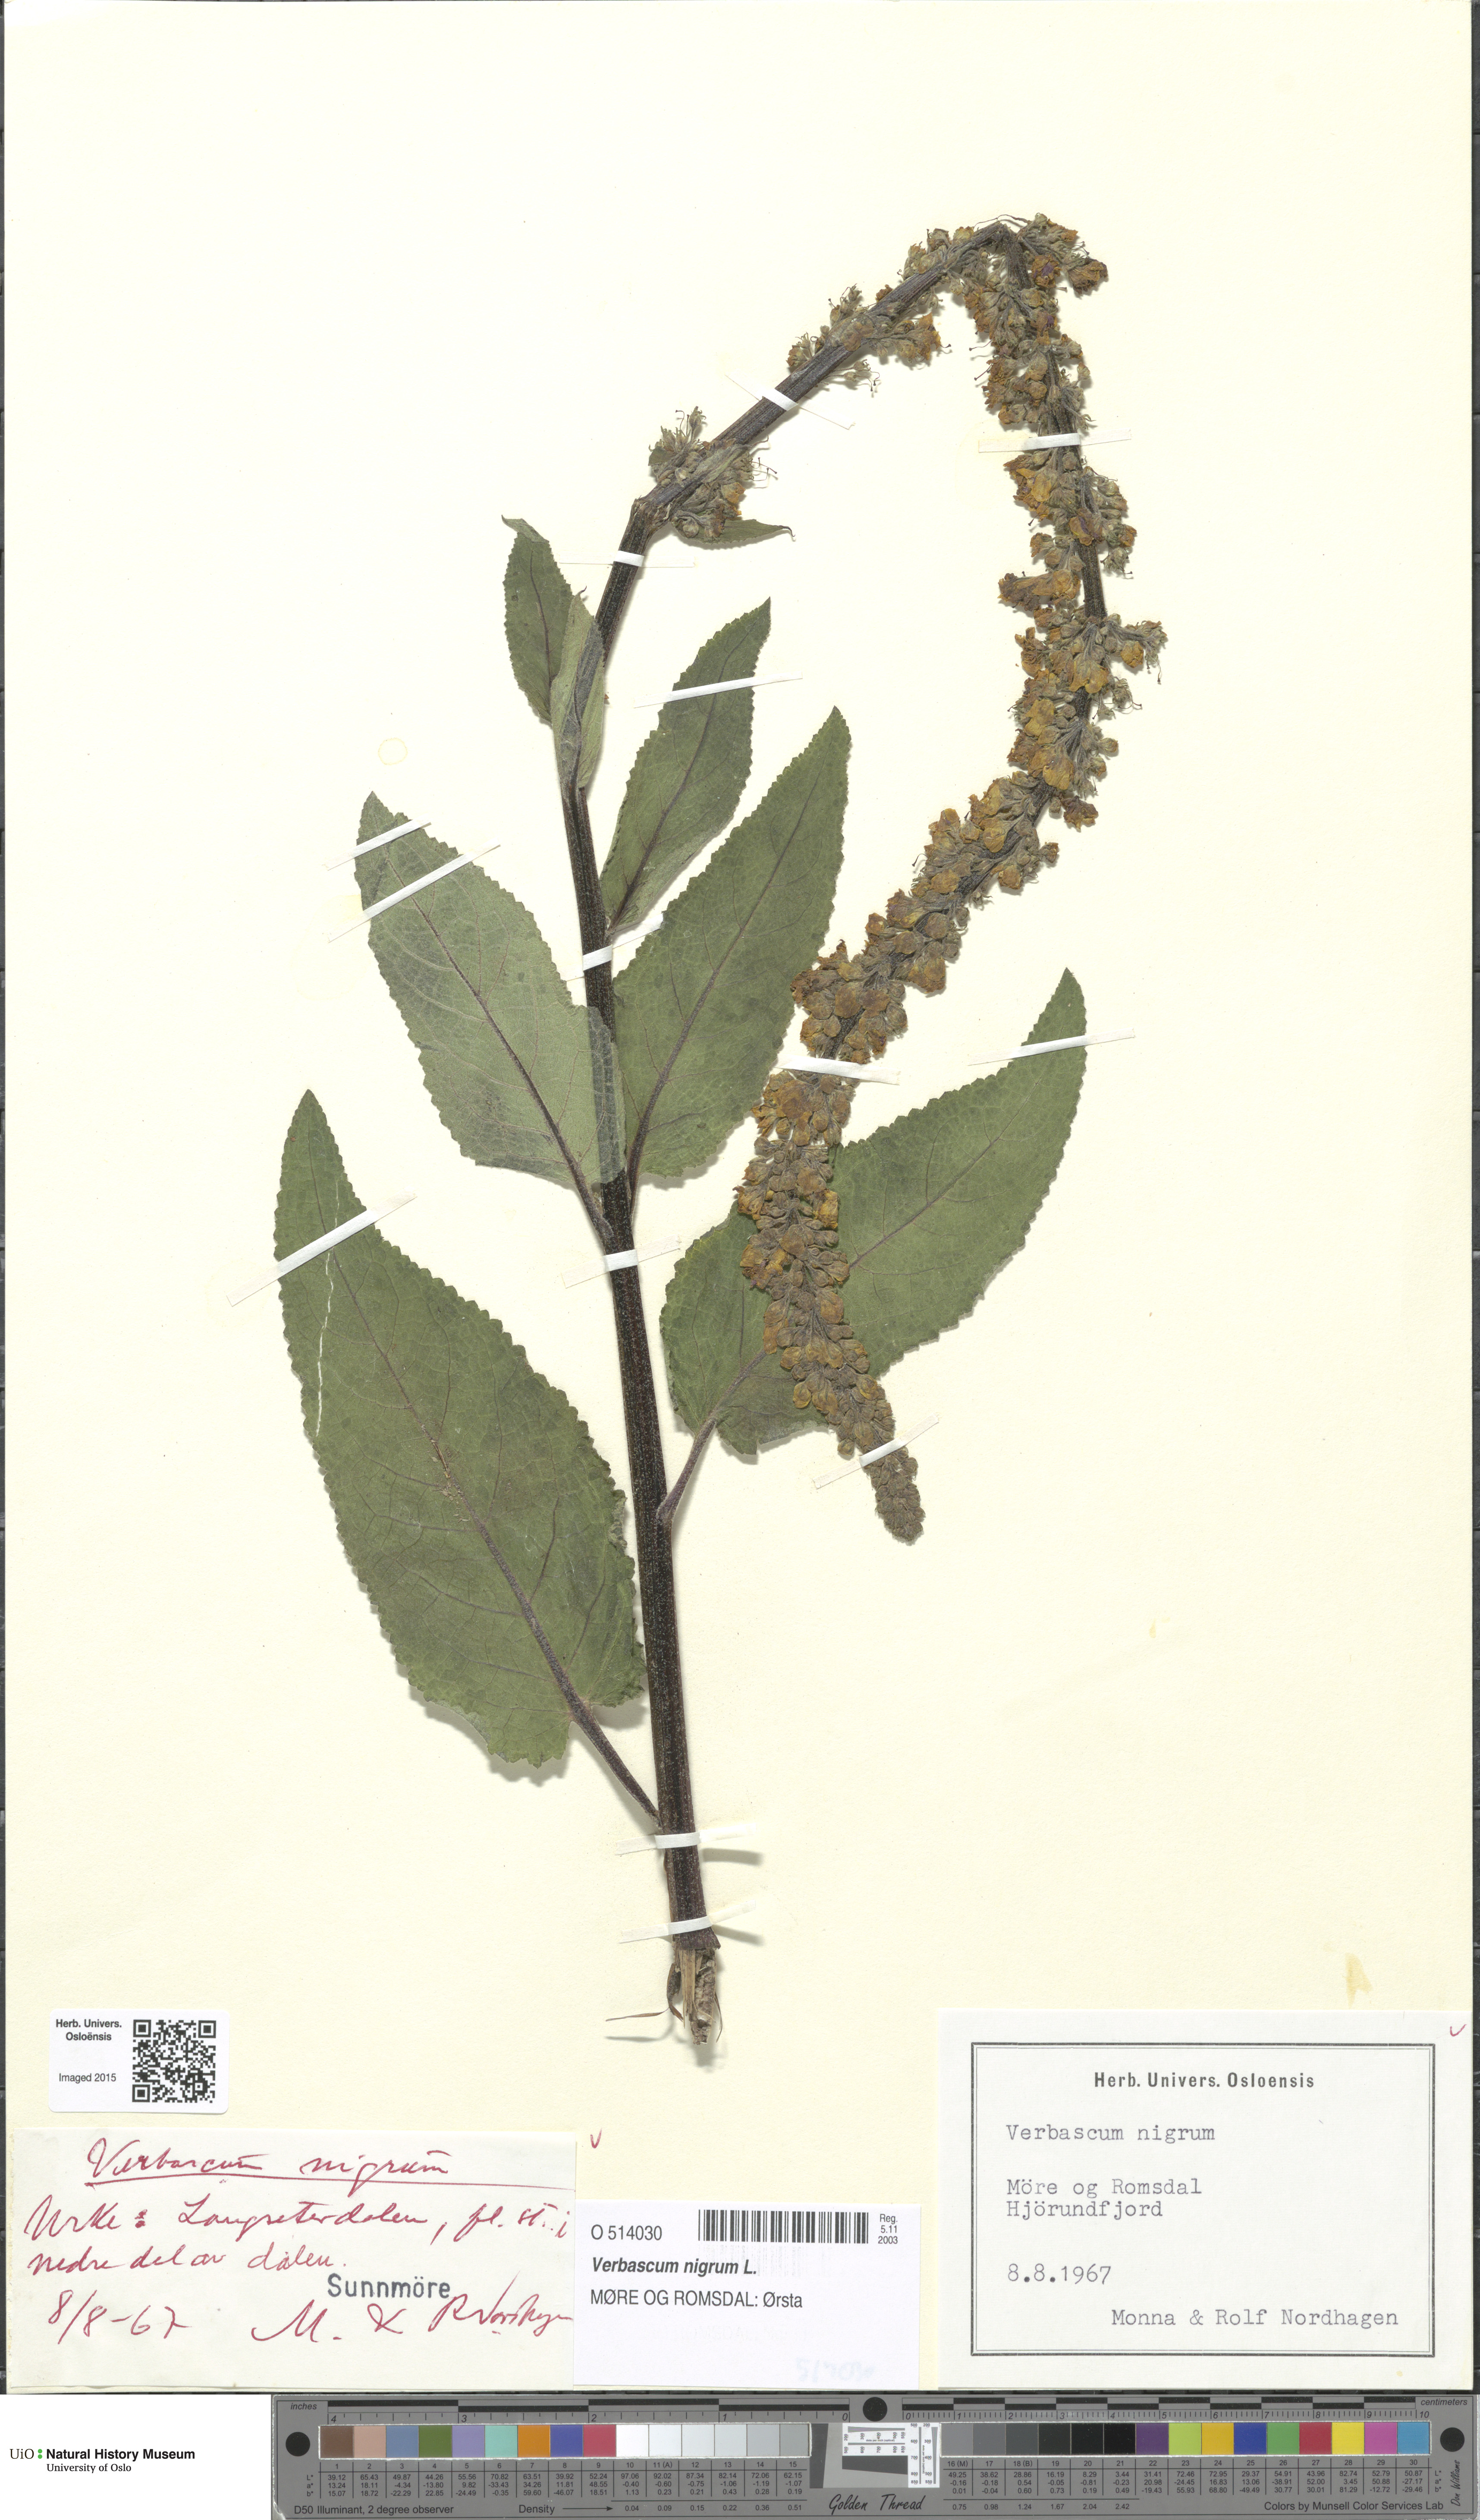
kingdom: Plantae
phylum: Tracheophyta
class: Magnoliopsida
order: Lamiales
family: Scrophulariaceae
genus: Verbascum
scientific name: Verbascum nigrum
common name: Dark mullein
